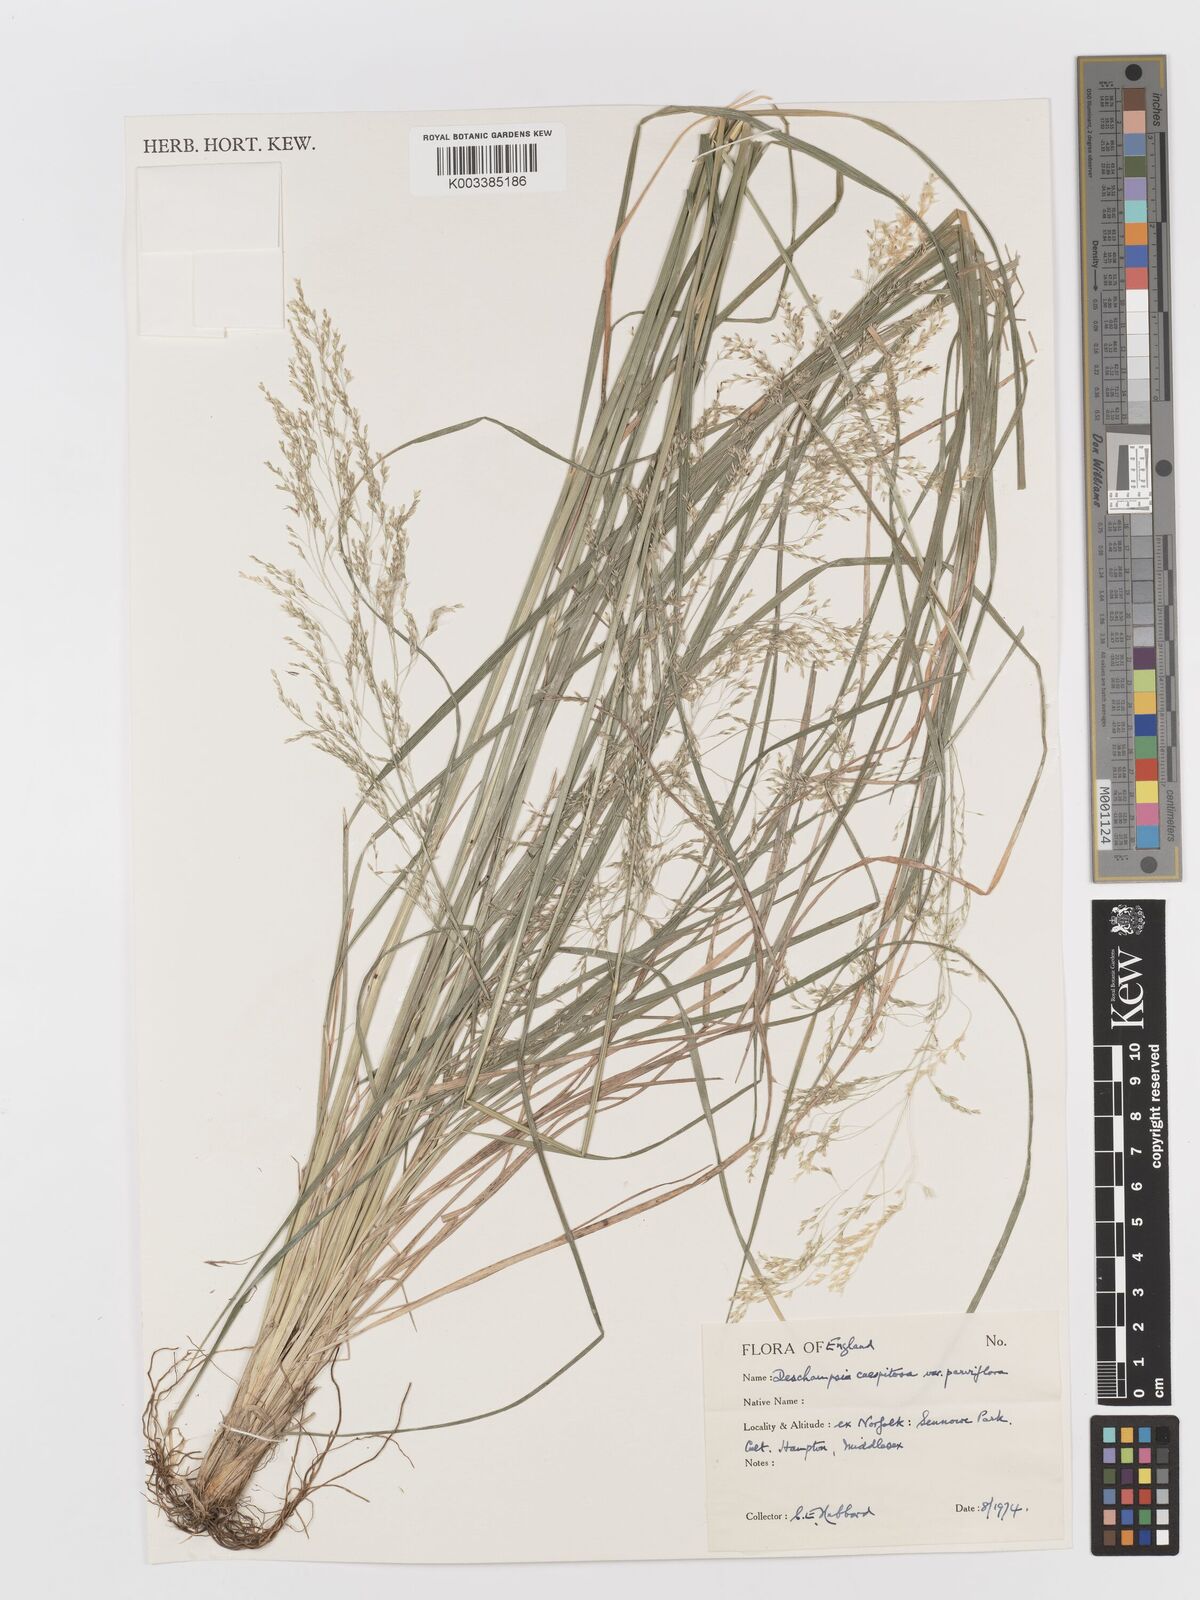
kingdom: Plantae
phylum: Tracheophyta
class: Liliopsida
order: Poales
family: Poaceae
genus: Deschampsia
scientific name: Deschampsia cespitosa
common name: Tufted hair-grass
